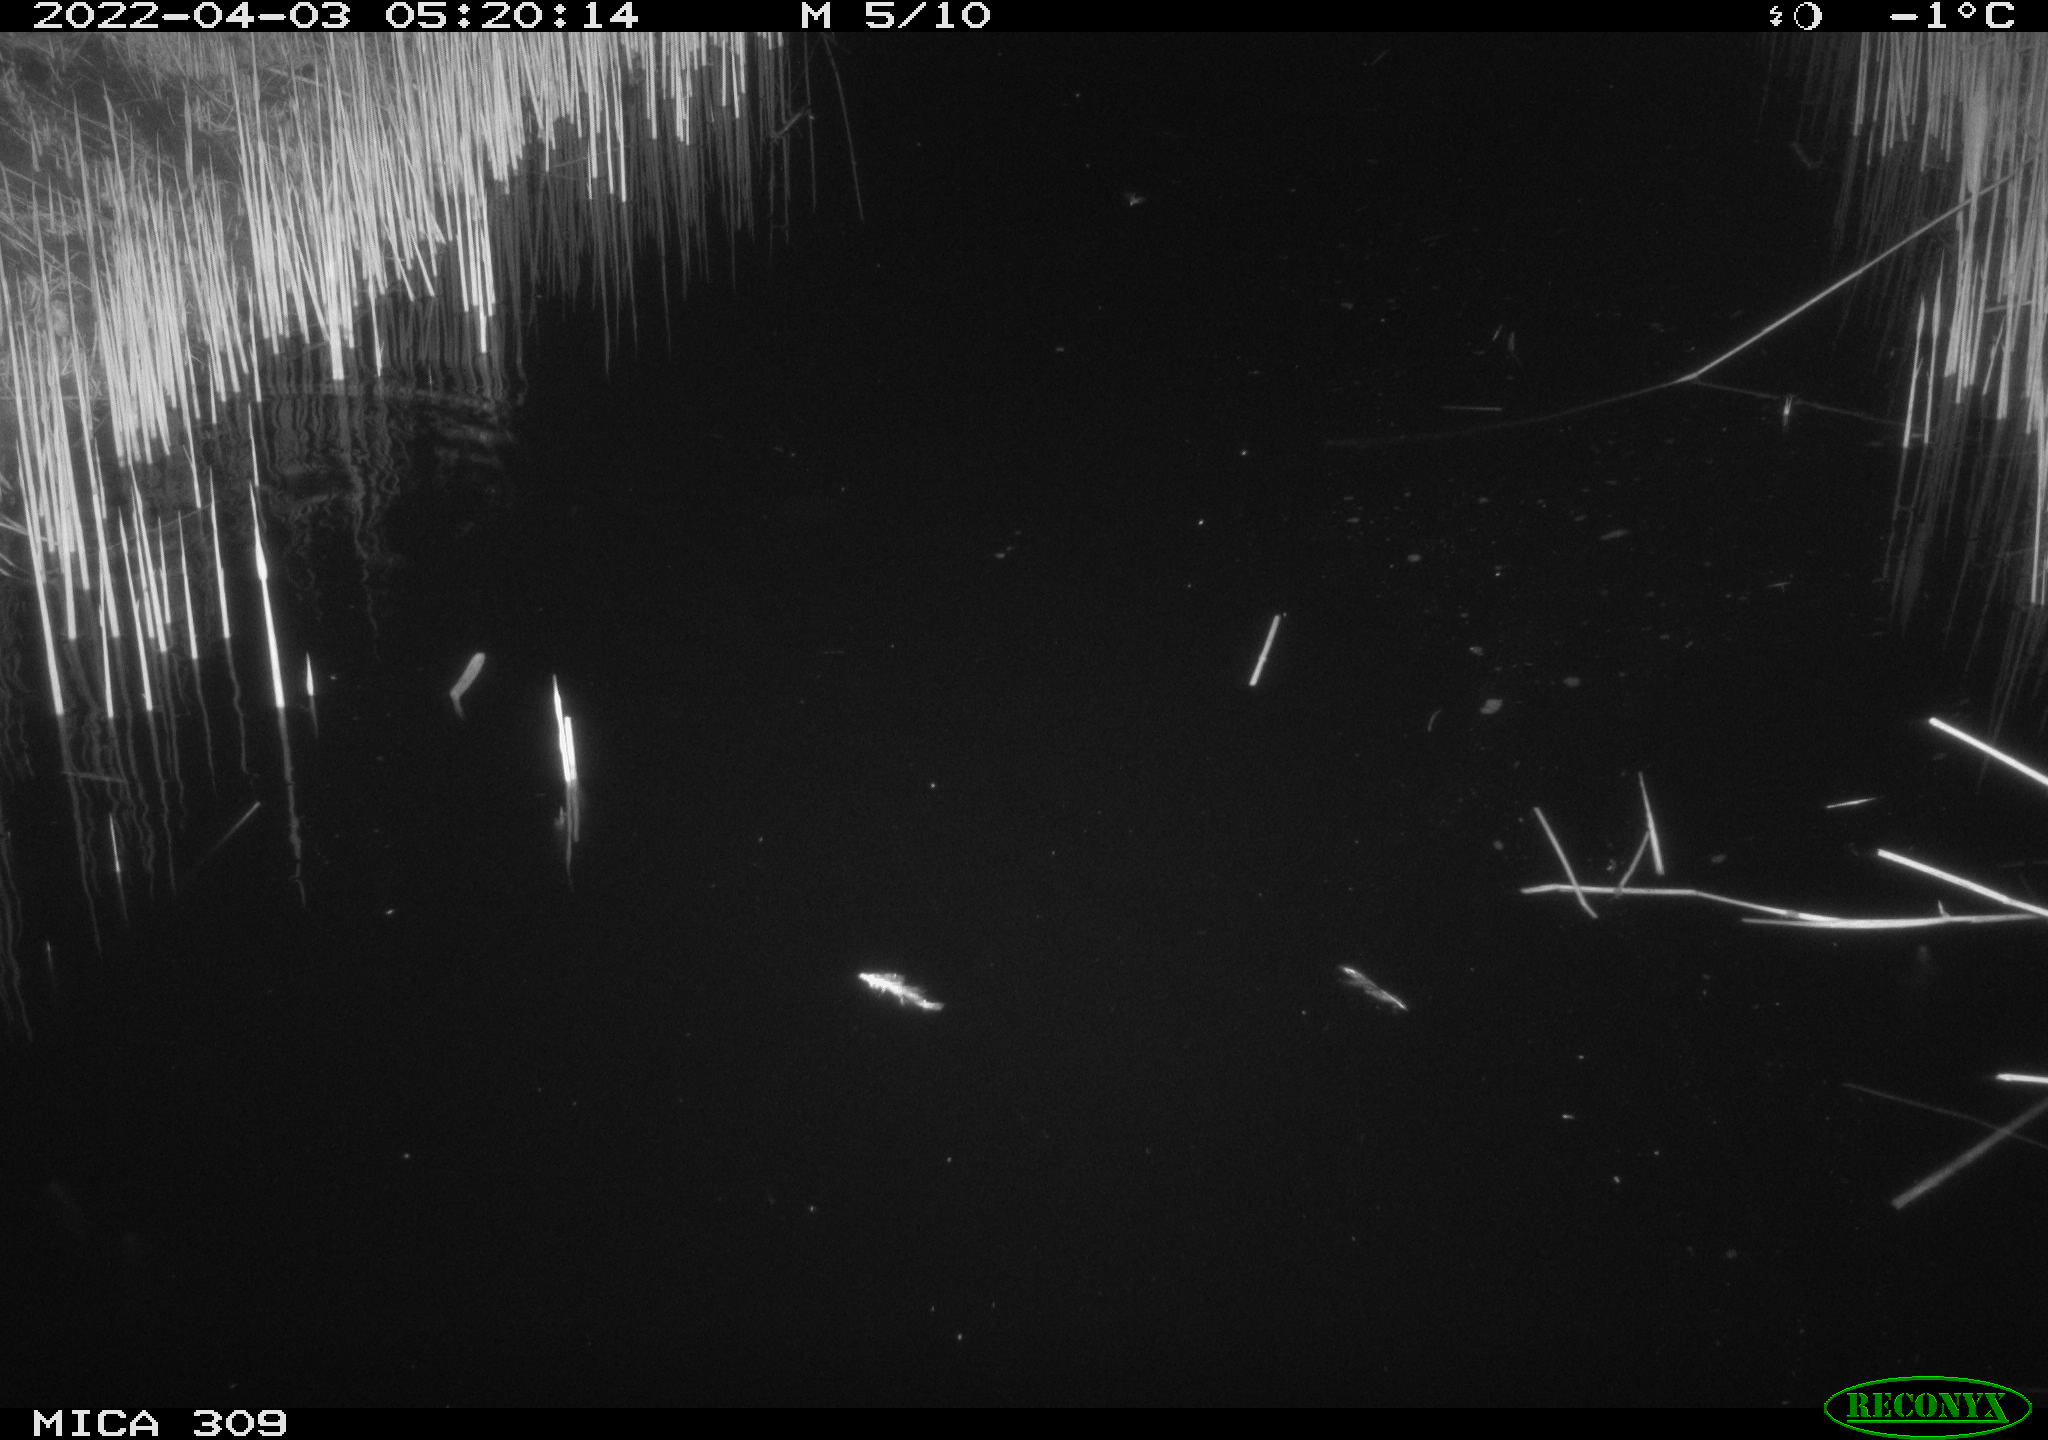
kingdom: Animalia
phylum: Chordata
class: Aves
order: Anseriformes
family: Anatidae
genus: Anas
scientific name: Anas platyrhynchos
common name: Mallard
